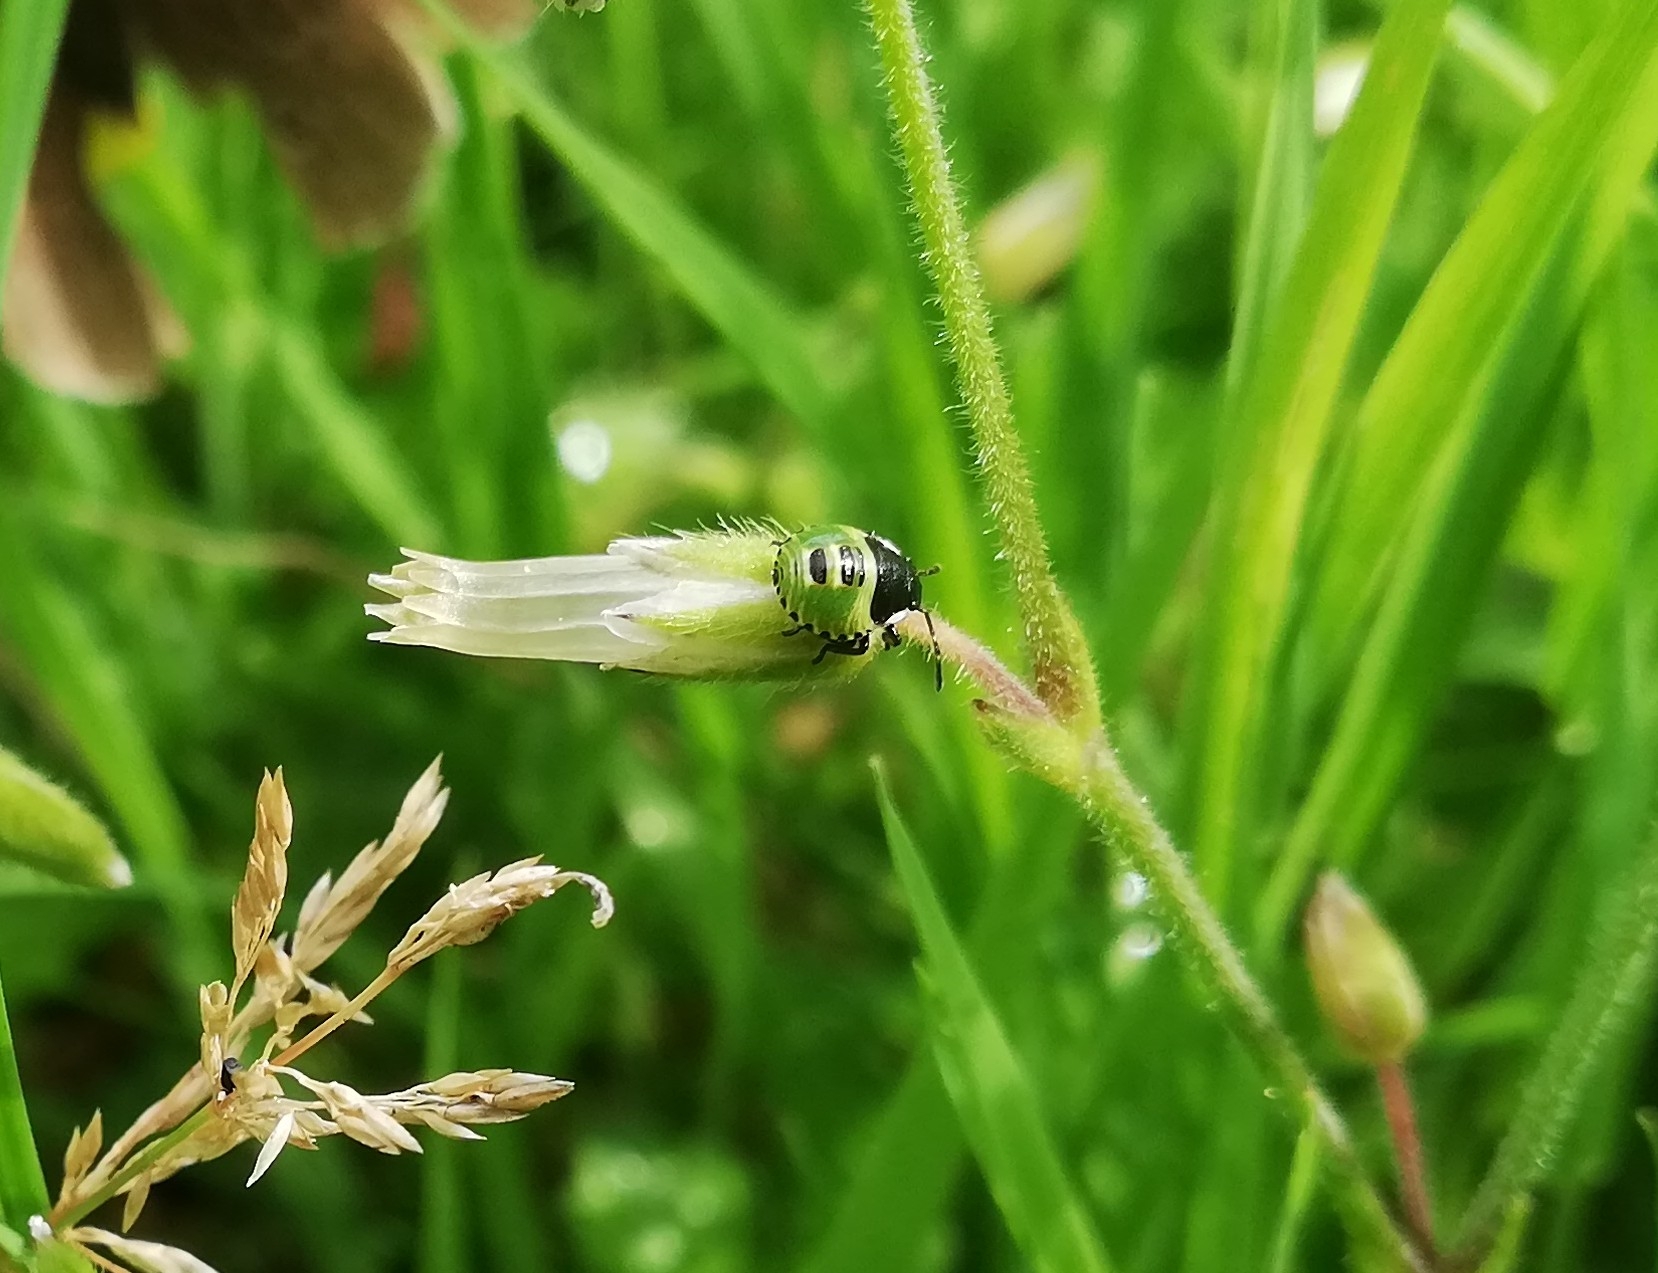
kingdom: Animalia
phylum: Arthropoda
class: Insecta
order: Hemiptera
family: Pentatomidae
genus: Palomena
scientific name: Palomena prasina
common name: Grøn bredtæge
